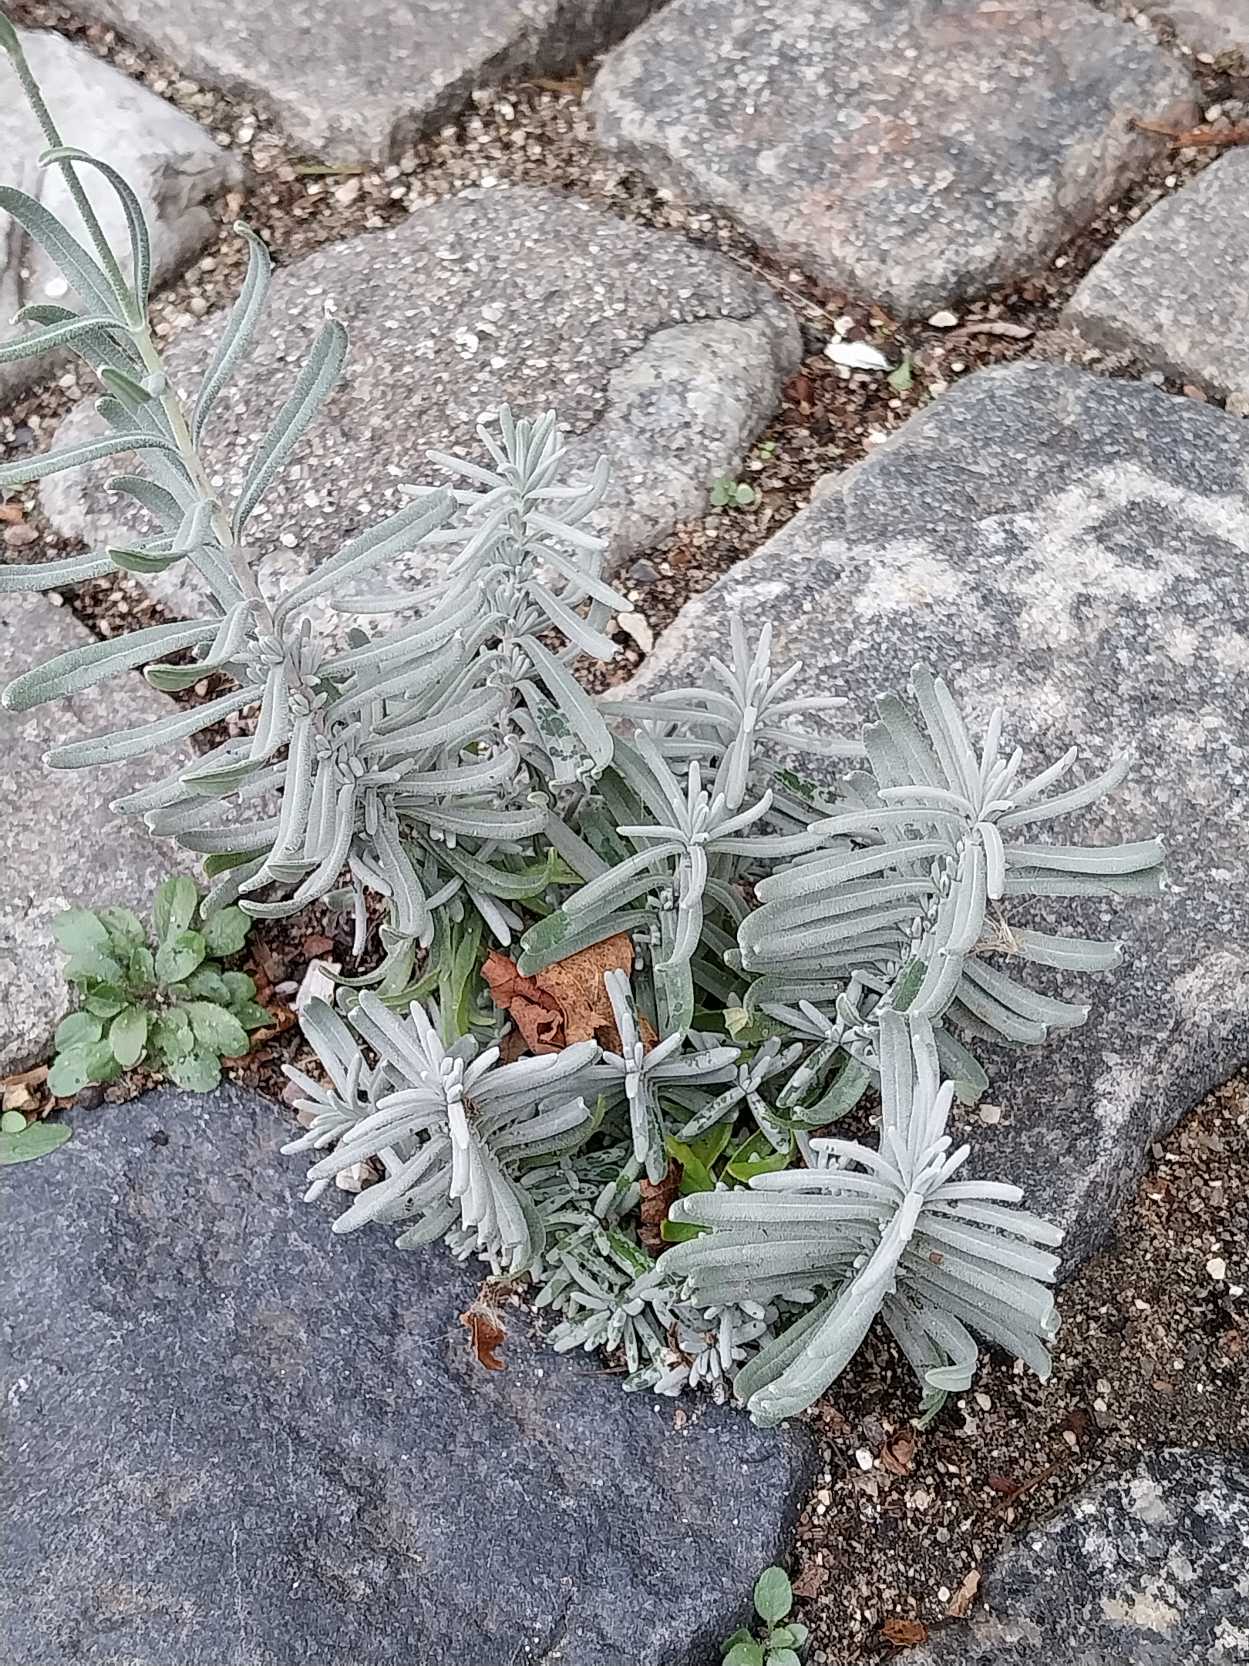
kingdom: Plantae
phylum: Tracheophyta
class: Magnoliopsida
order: Lamiales
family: Lamiaceae
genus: Lavandula
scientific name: Lavandula angustifolia
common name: Ægte lavendel
